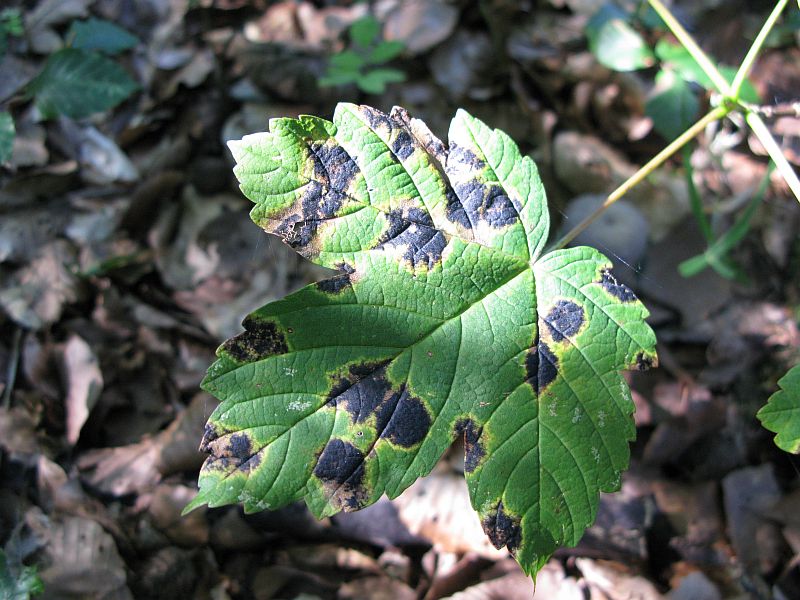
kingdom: Fungi
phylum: Ascomycota
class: Leotiomycetes
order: Rhytismatales
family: Rhytismataceae
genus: Rhytisma
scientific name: Rhytisma acerinum
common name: ahorn-rynkeplet
